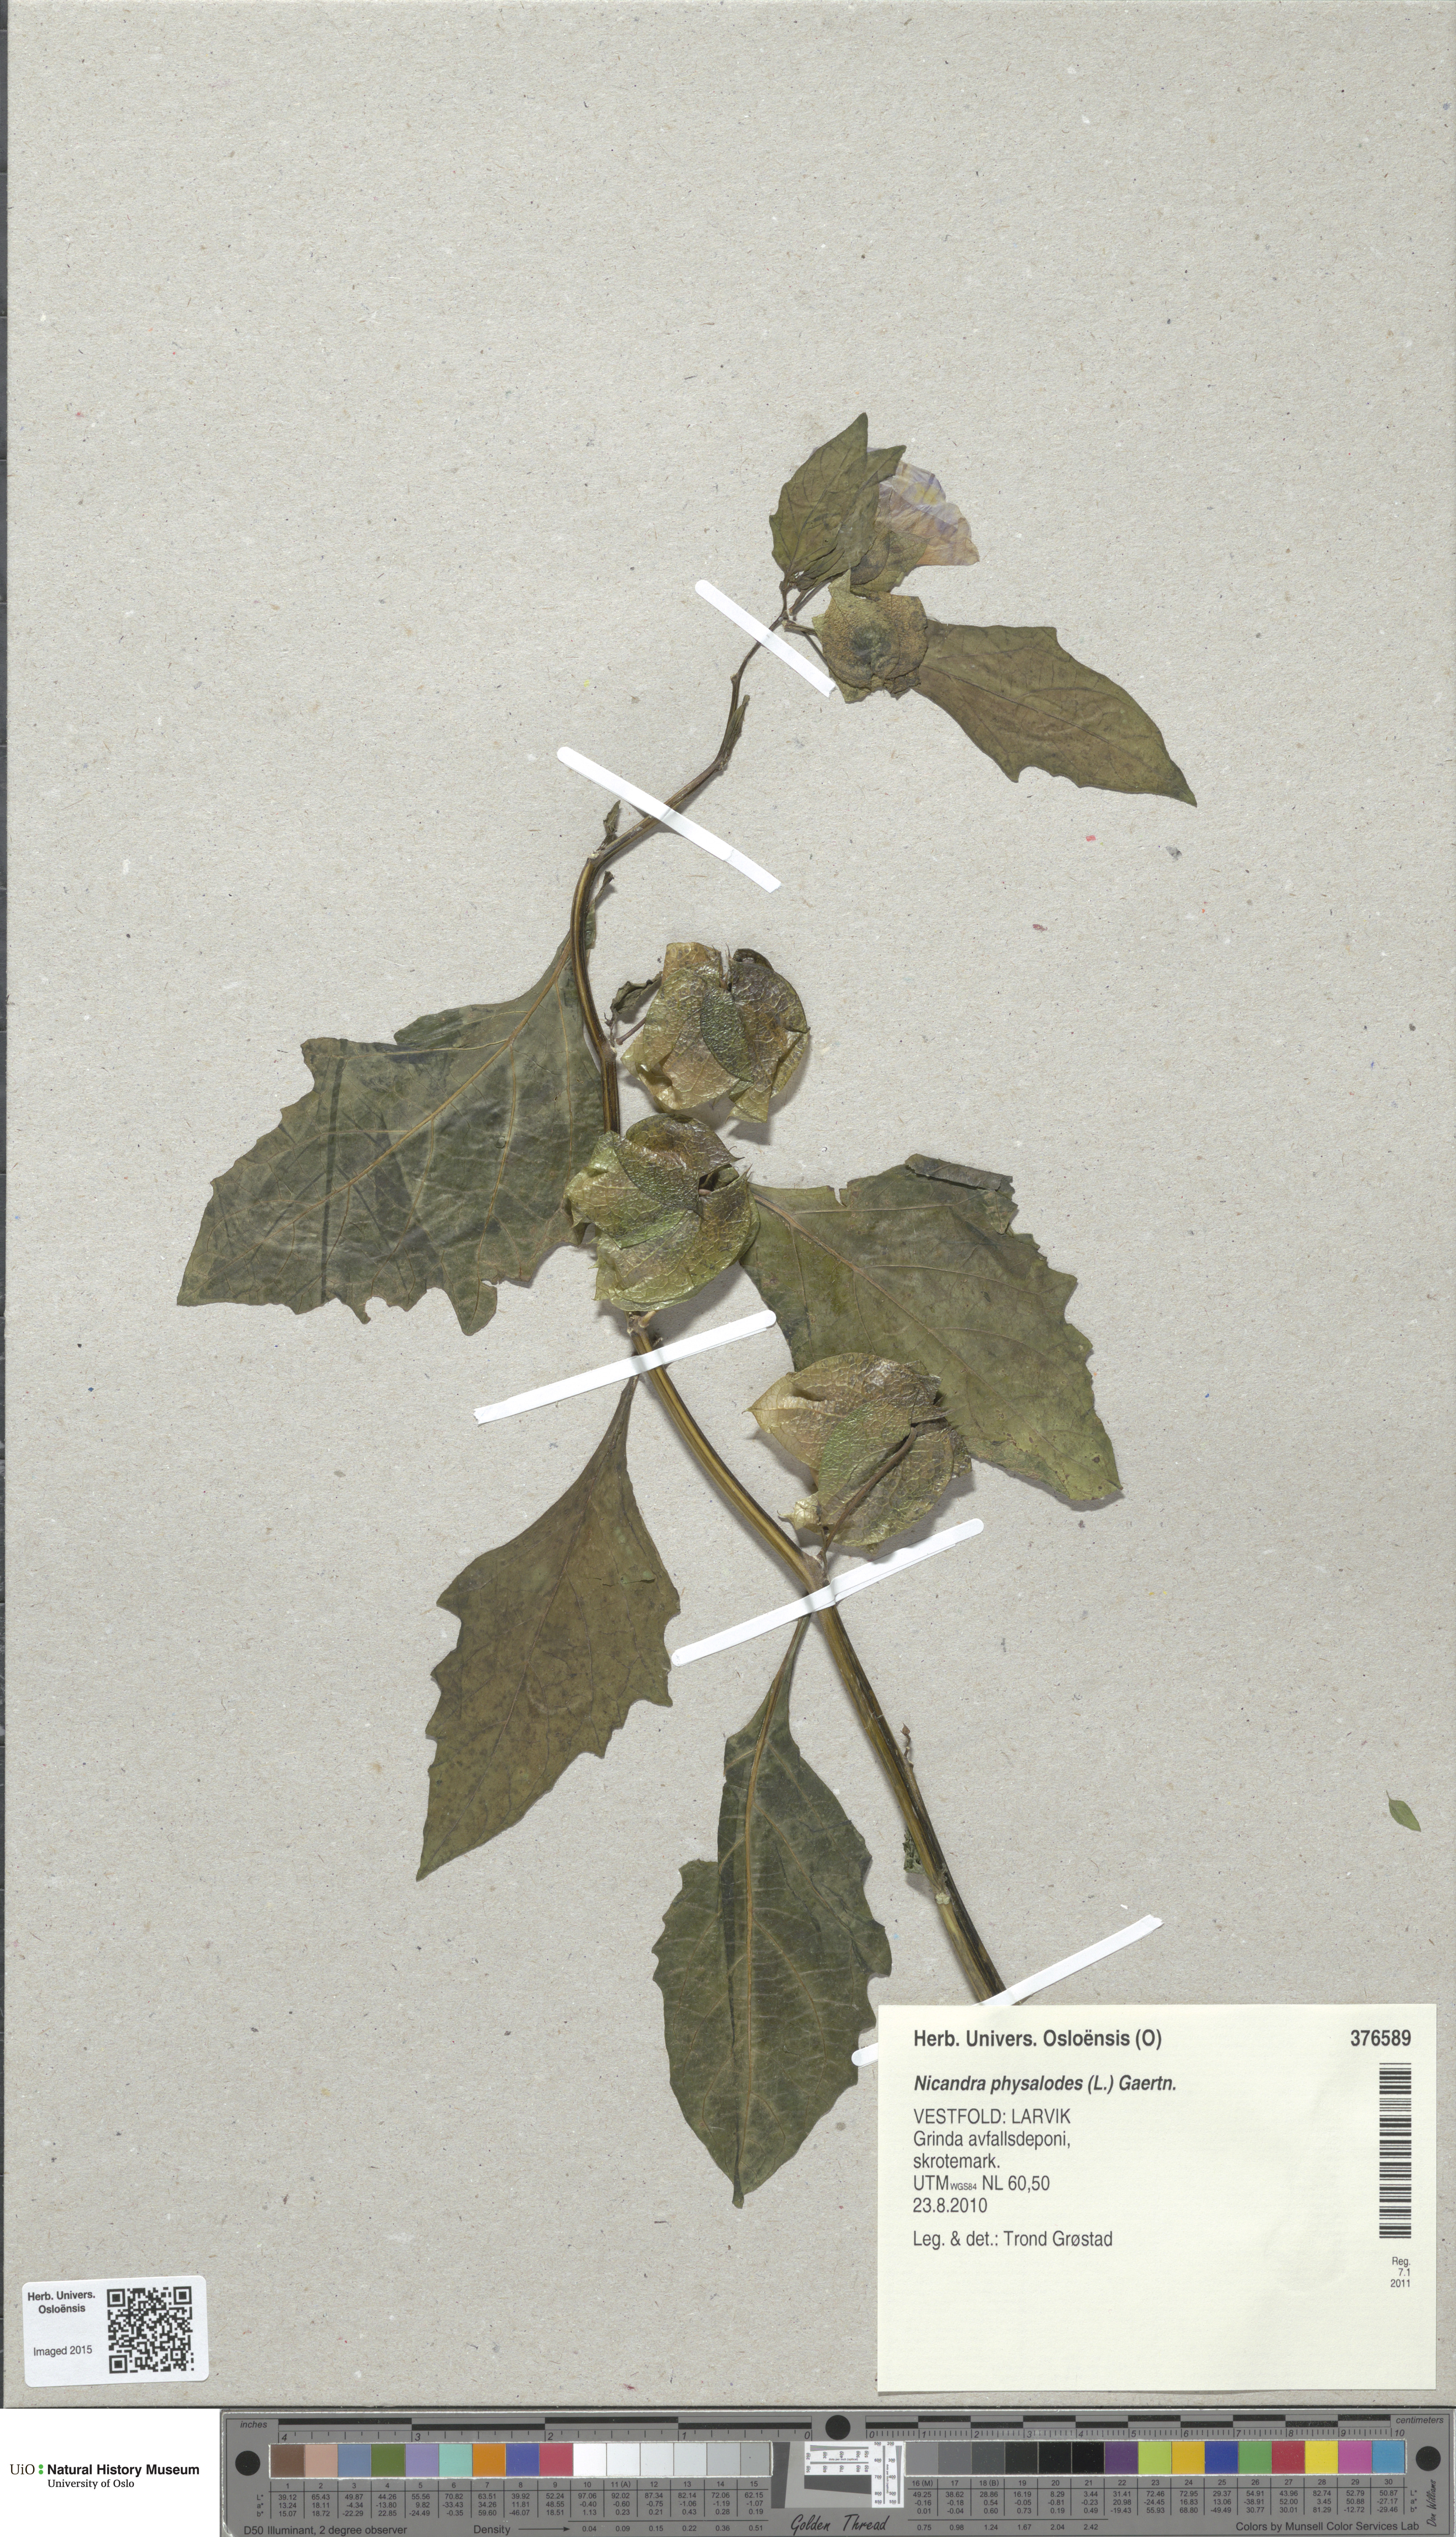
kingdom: Plantae
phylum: Tracheophyta
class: Magnoliopsida
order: Solanales
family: Solanaceae
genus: Nicandra
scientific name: Nicandra physalodes
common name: Apple-of-peru
